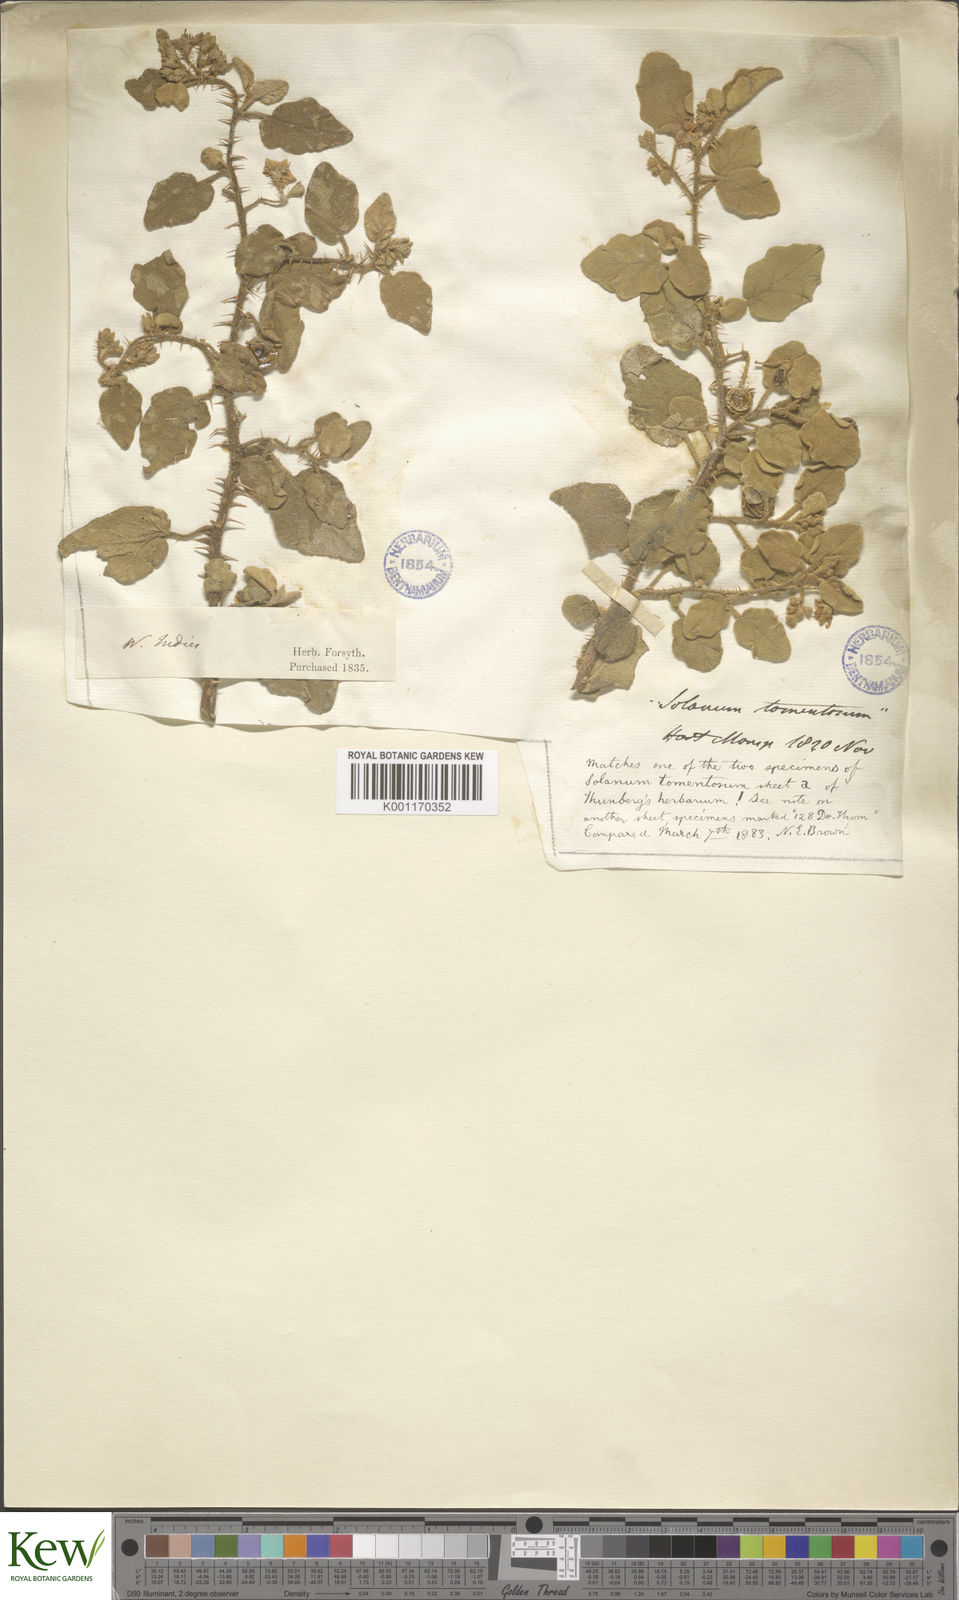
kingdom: Plantae
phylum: Tracheophyta
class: Magnoliopsida
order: Solanales
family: Solanaceae
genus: Solanum
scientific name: Solanum tomentosum
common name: Wild aubergine
